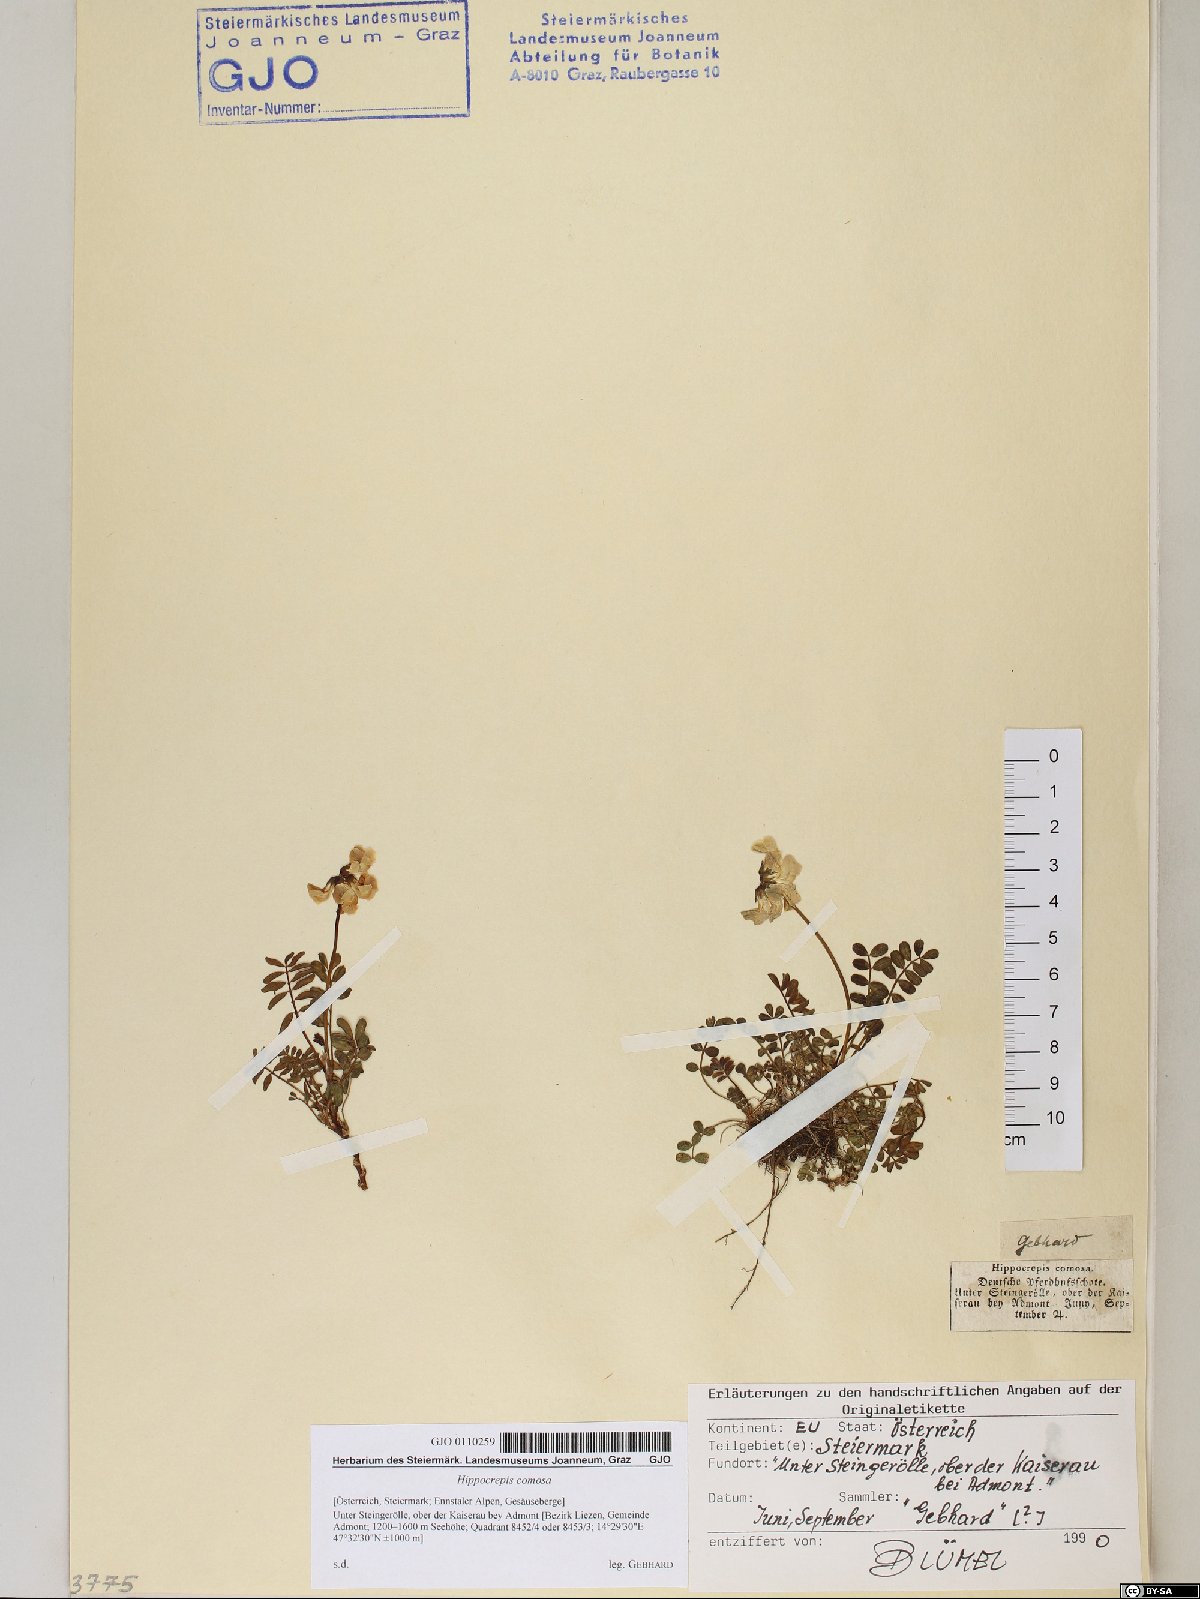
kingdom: Plantae
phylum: Tracheophyta
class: Magnoliopsida
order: Fabales
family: Fabaceae
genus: Hippocrepis
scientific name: Hippocrepis comosa
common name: Horseshoe vetch
